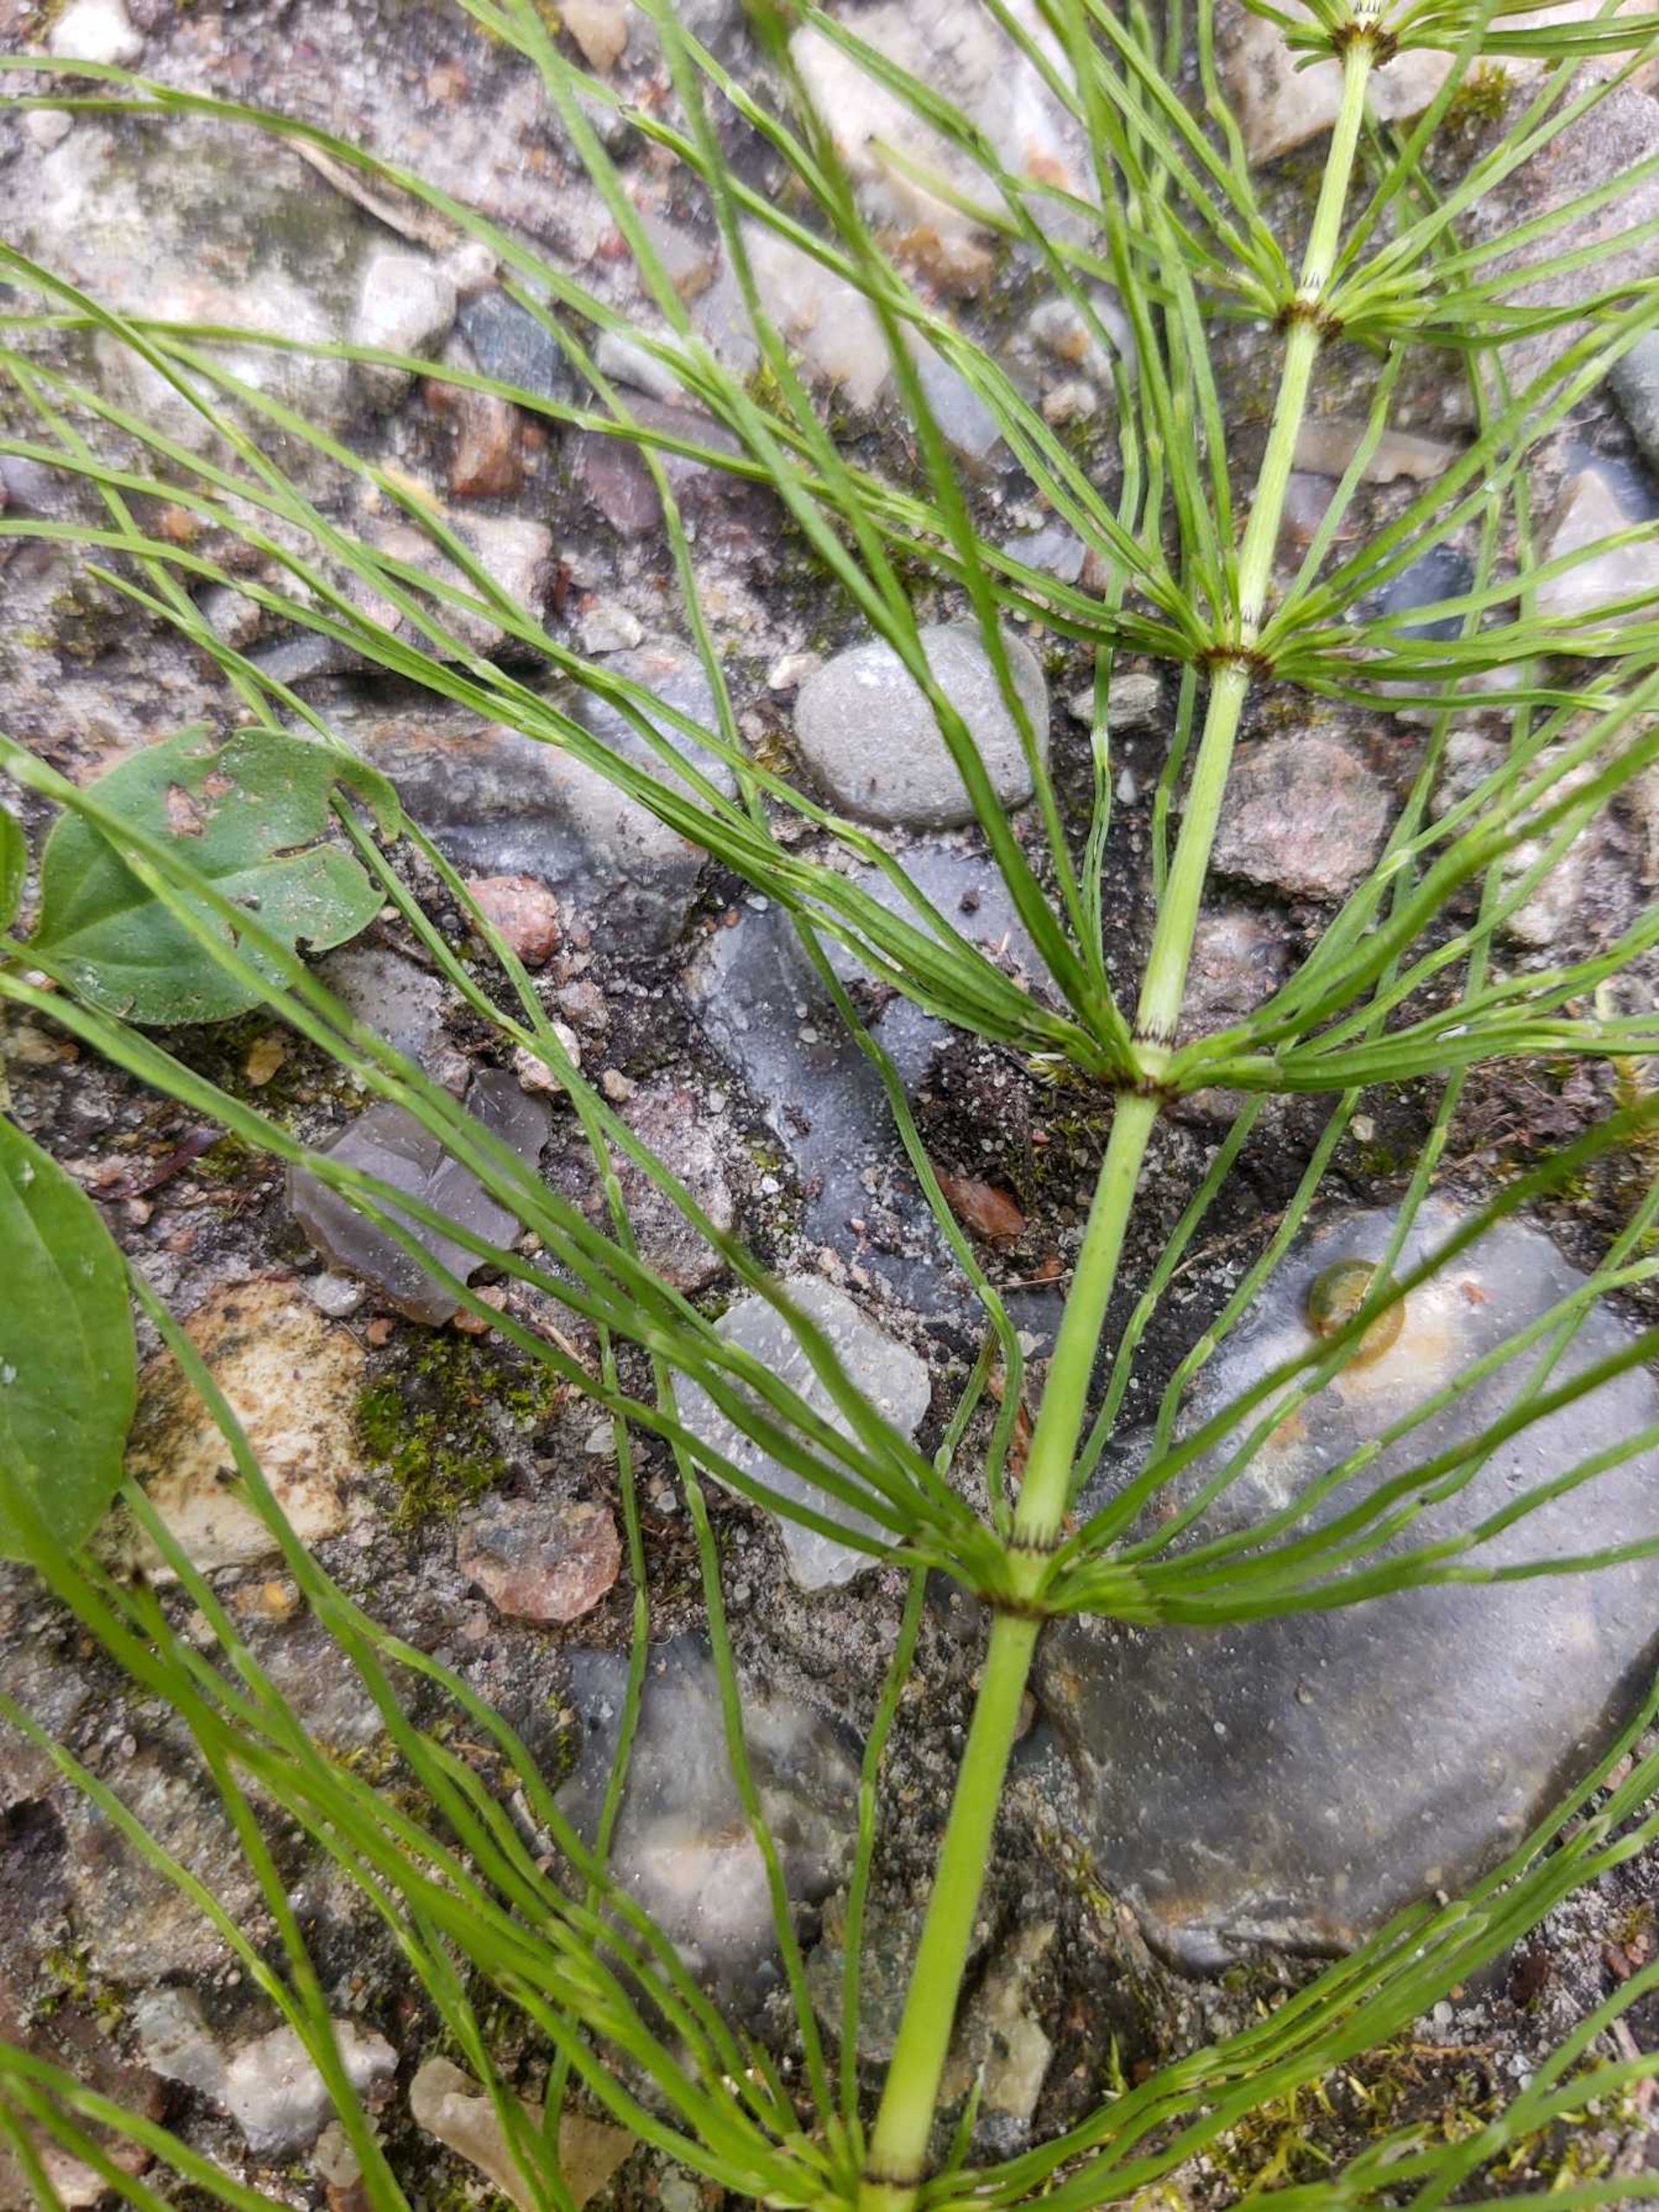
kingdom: Plantae
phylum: Tracheophyta
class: Polypodiopsida
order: Equisetales
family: Equisetaceae
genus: Equisetum
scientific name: Equisetum pratense
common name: Lund-padderok
